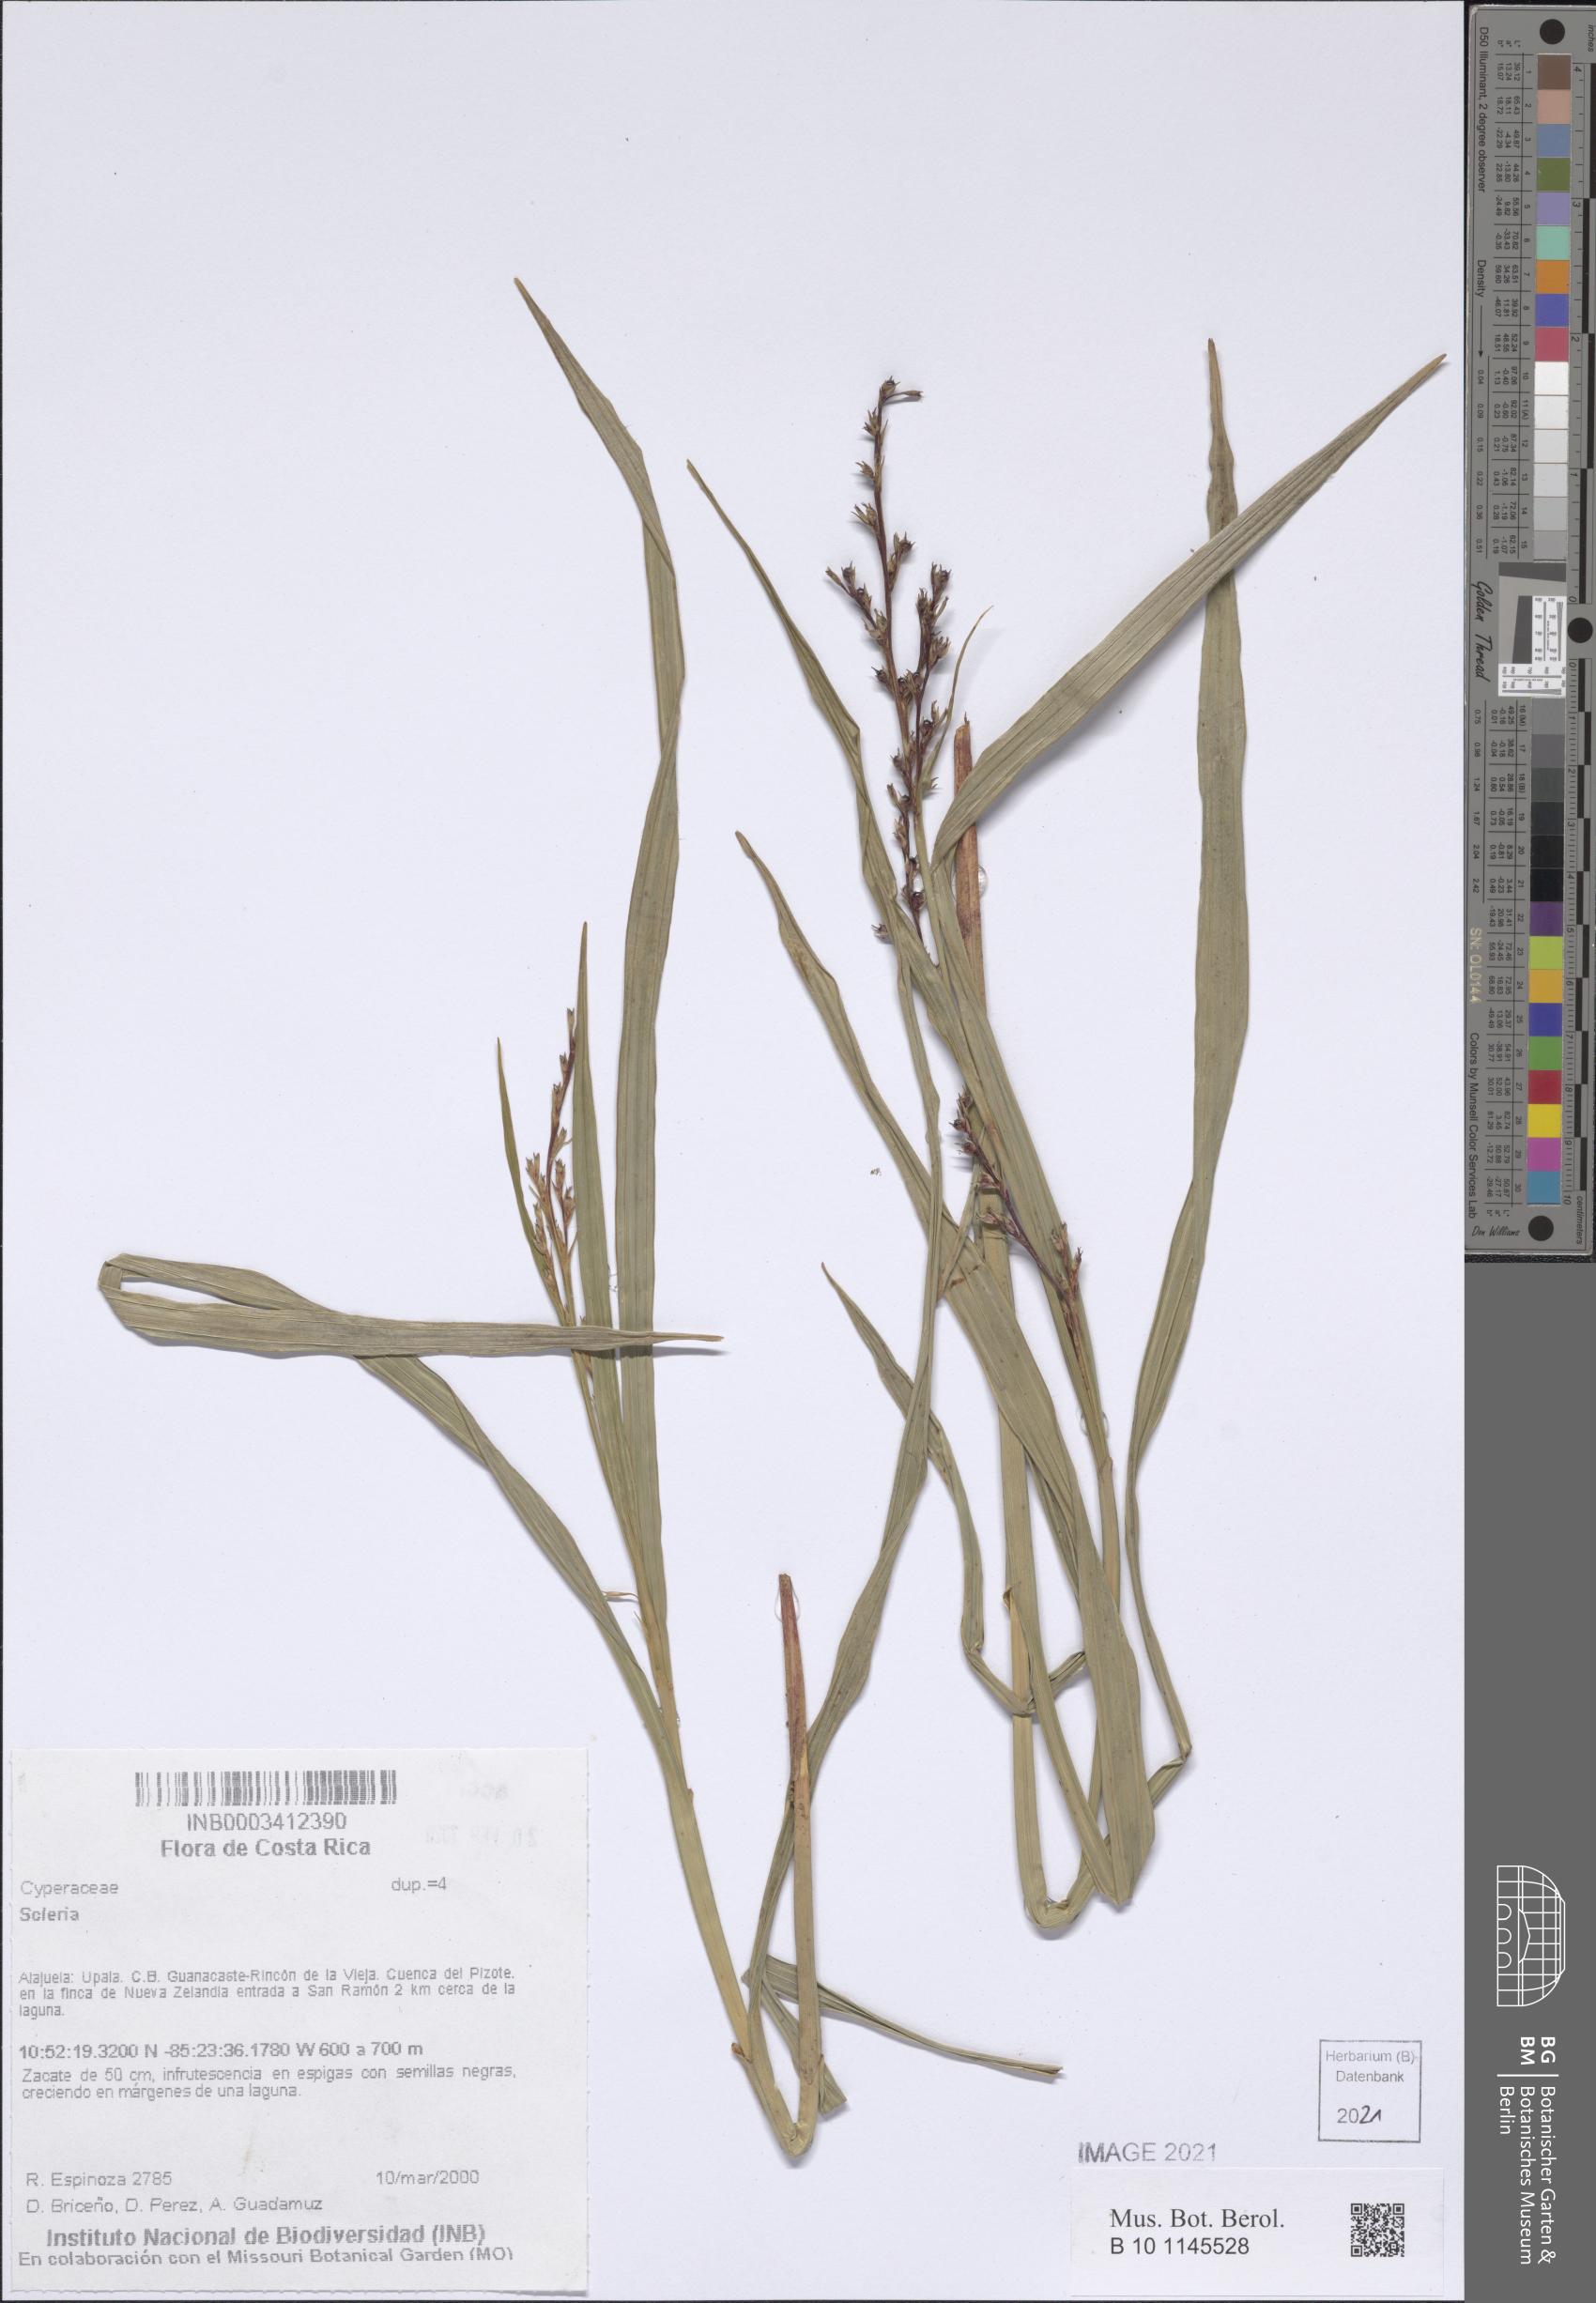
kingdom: Plantae
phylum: Tracheophyta
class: Liliopsida
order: Poales
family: Cyperaceae
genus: Scleria
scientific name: Scleria gaertneri
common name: Cortadera blanca
